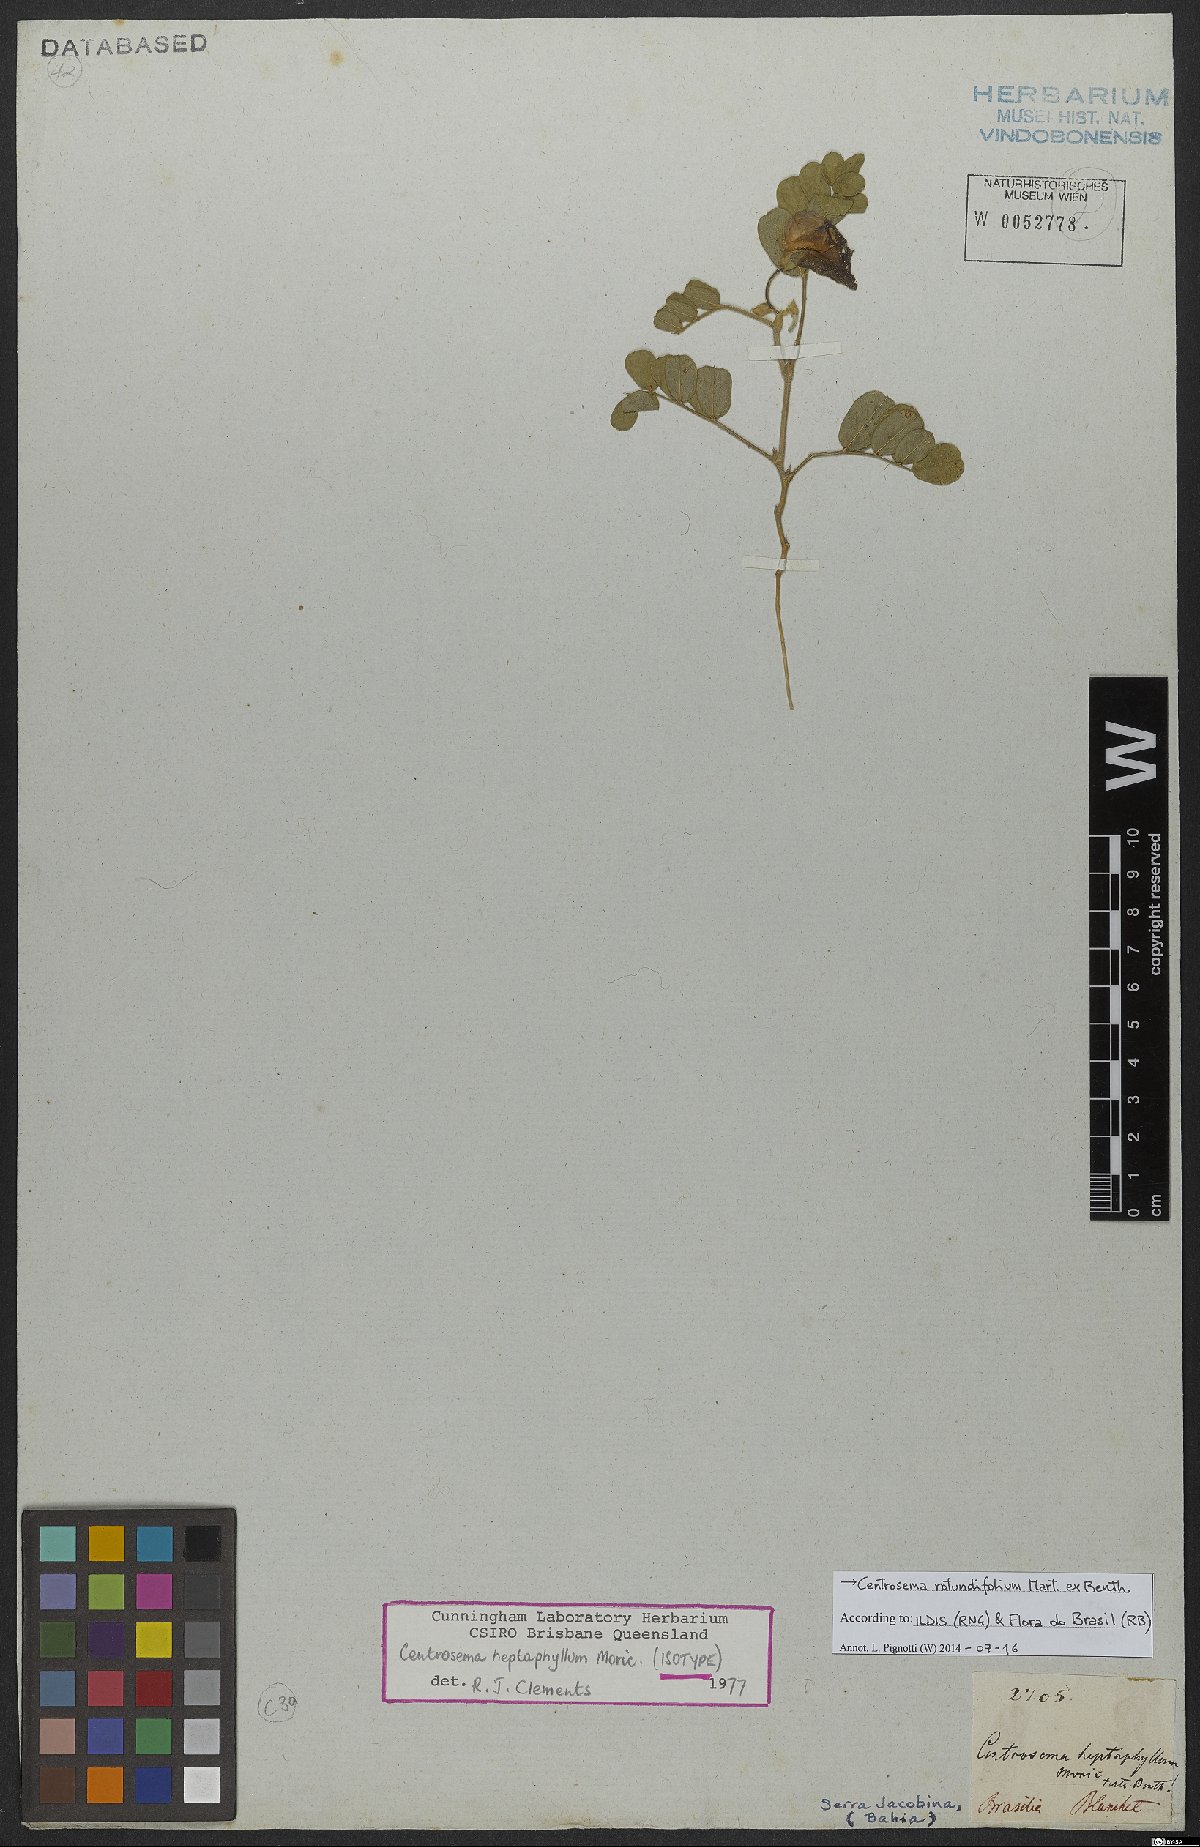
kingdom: Plantae
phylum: Tracheophyta
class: Magnoliopsida
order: Fabales
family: Fabaceae
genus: Centrosema
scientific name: Centrosema rotundifolium
